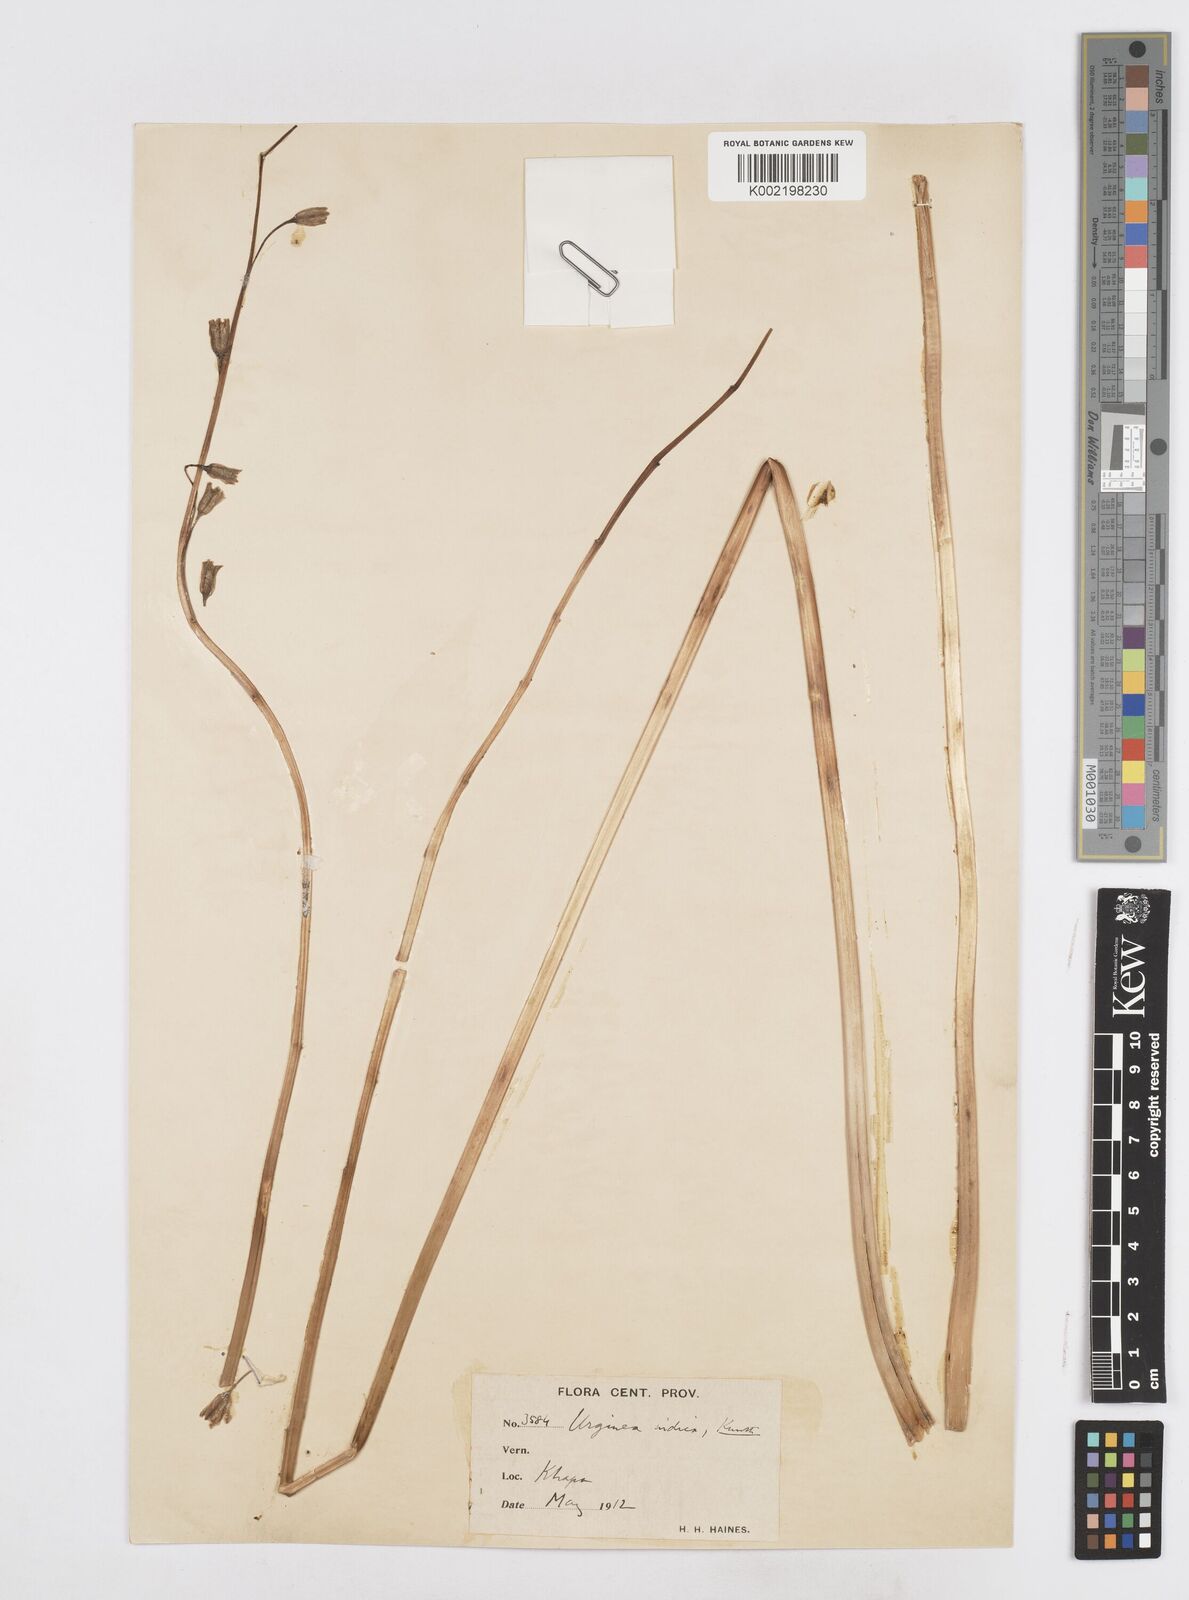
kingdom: Plantae
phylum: Tracheophyta
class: Liliopsida
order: Asparagales
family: Asparagaceae
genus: Drimia
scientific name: Drimia indica
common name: Indian-squill
